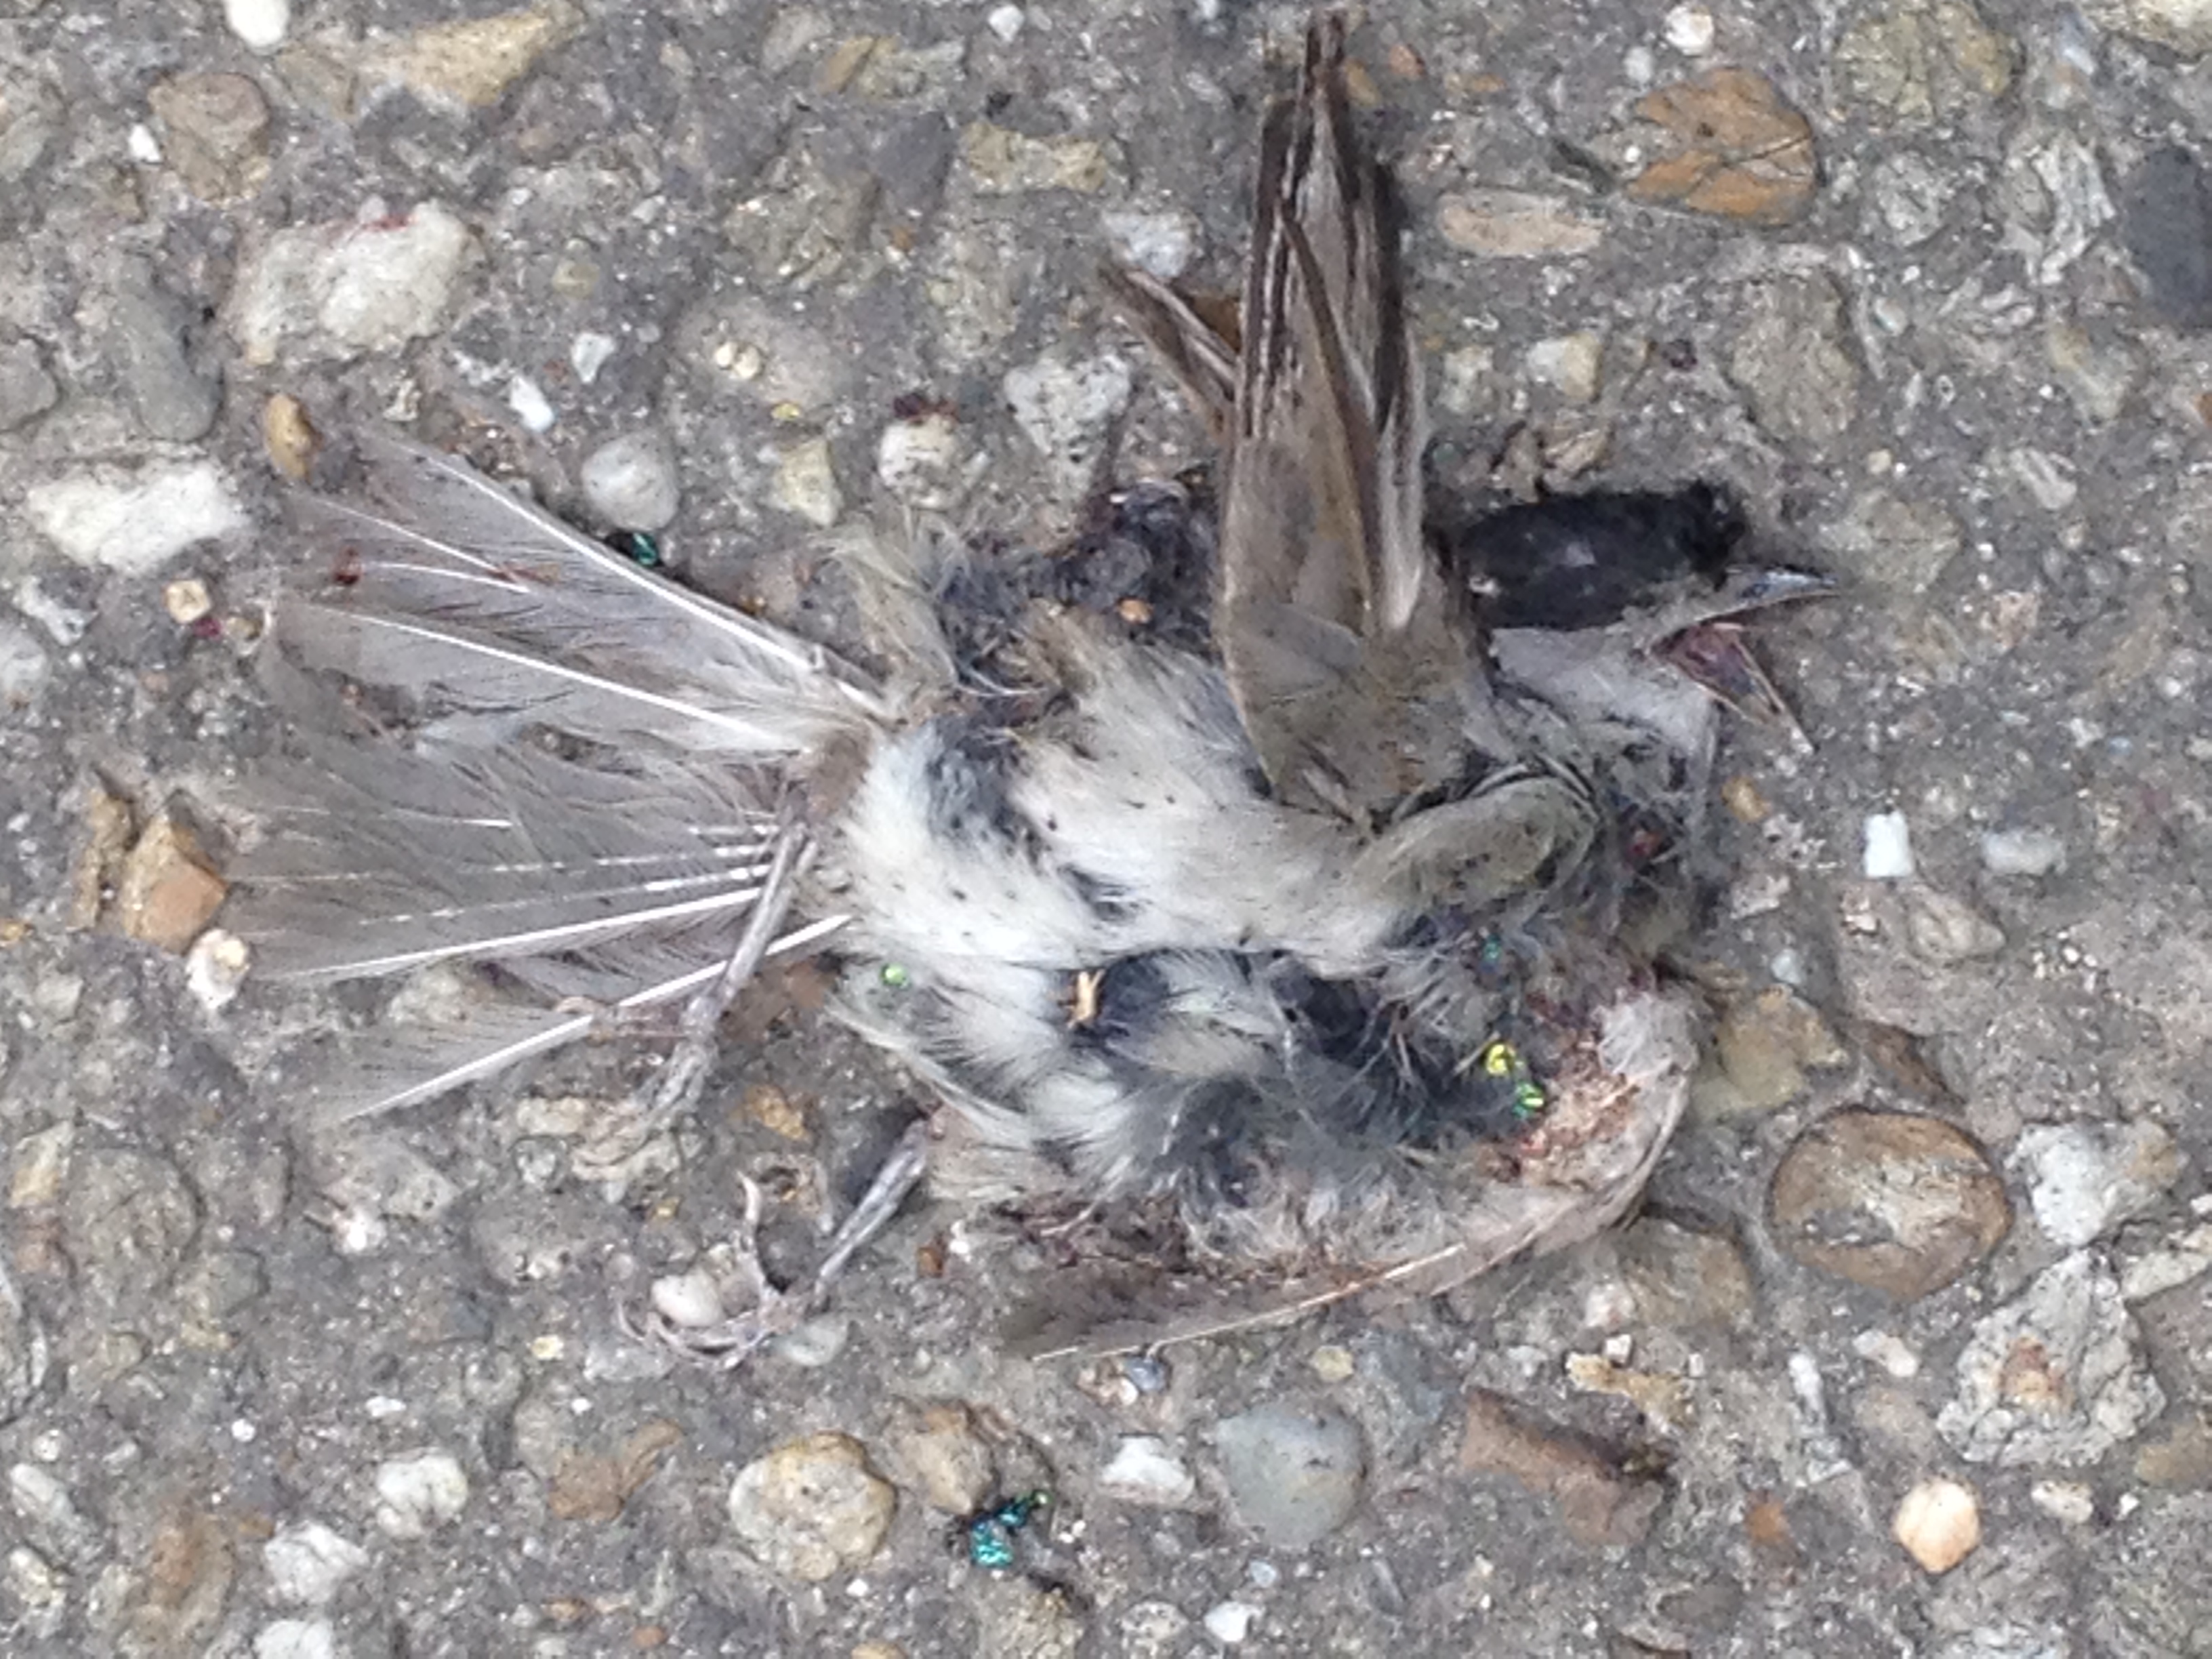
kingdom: Animalia
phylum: Chordata
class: Aves
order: Passeriformes
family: Sylviidae
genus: Sylvia
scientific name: Sylvia atricapilla
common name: Eurasian blackcap
